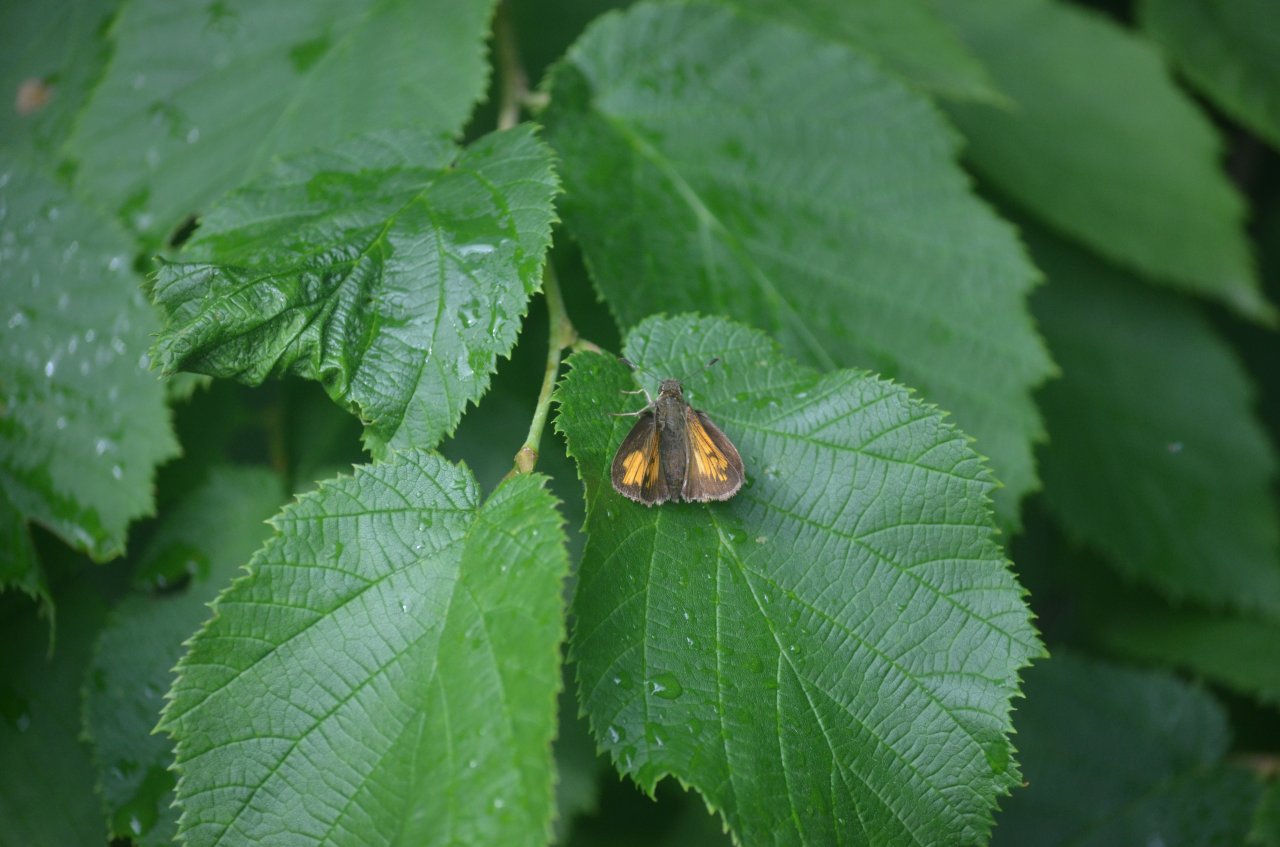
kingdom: Animalia
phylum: Arthropoda
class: Insecta
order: Lepidoptera
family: Hesperiidae
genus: Lon
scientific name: Lon hobomok
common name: Hobomok Skipper
